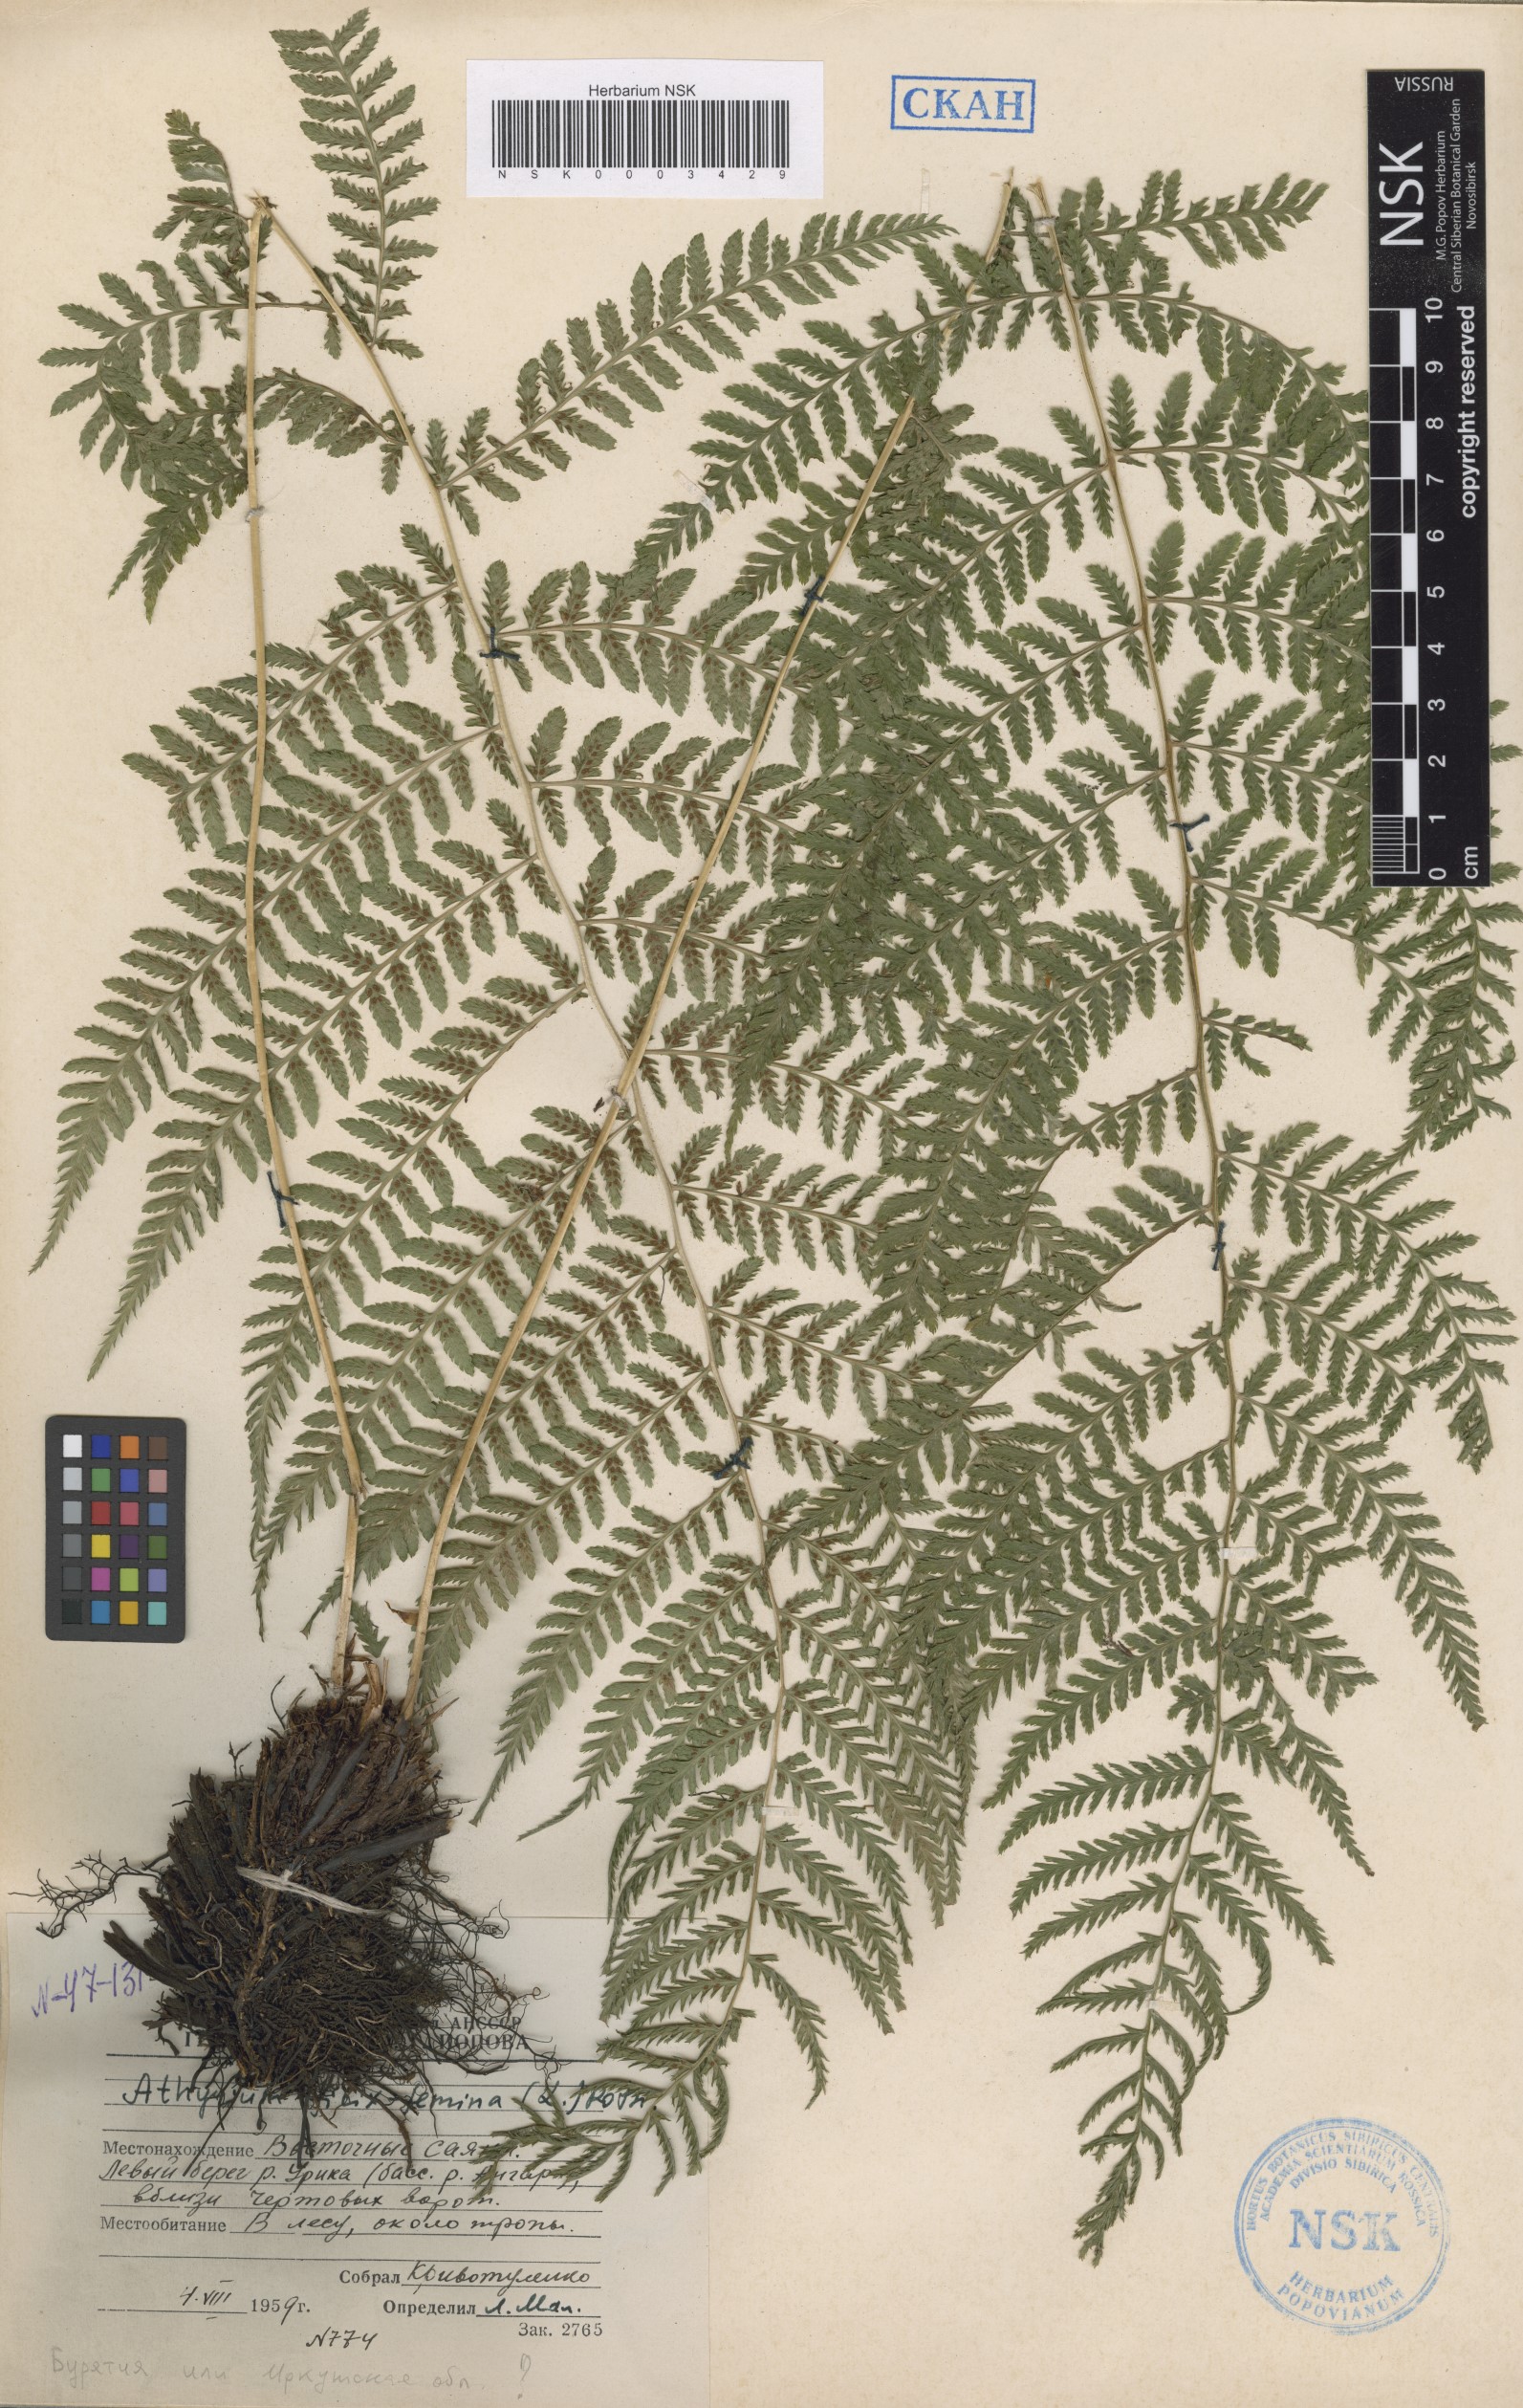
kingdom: Plantae
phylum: Tracheophyta
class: Polypodiopsida
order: Polypodiales
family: Athyriaceae
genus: Athyrium
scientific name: Athyrium filix-femina
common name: Lady fern
